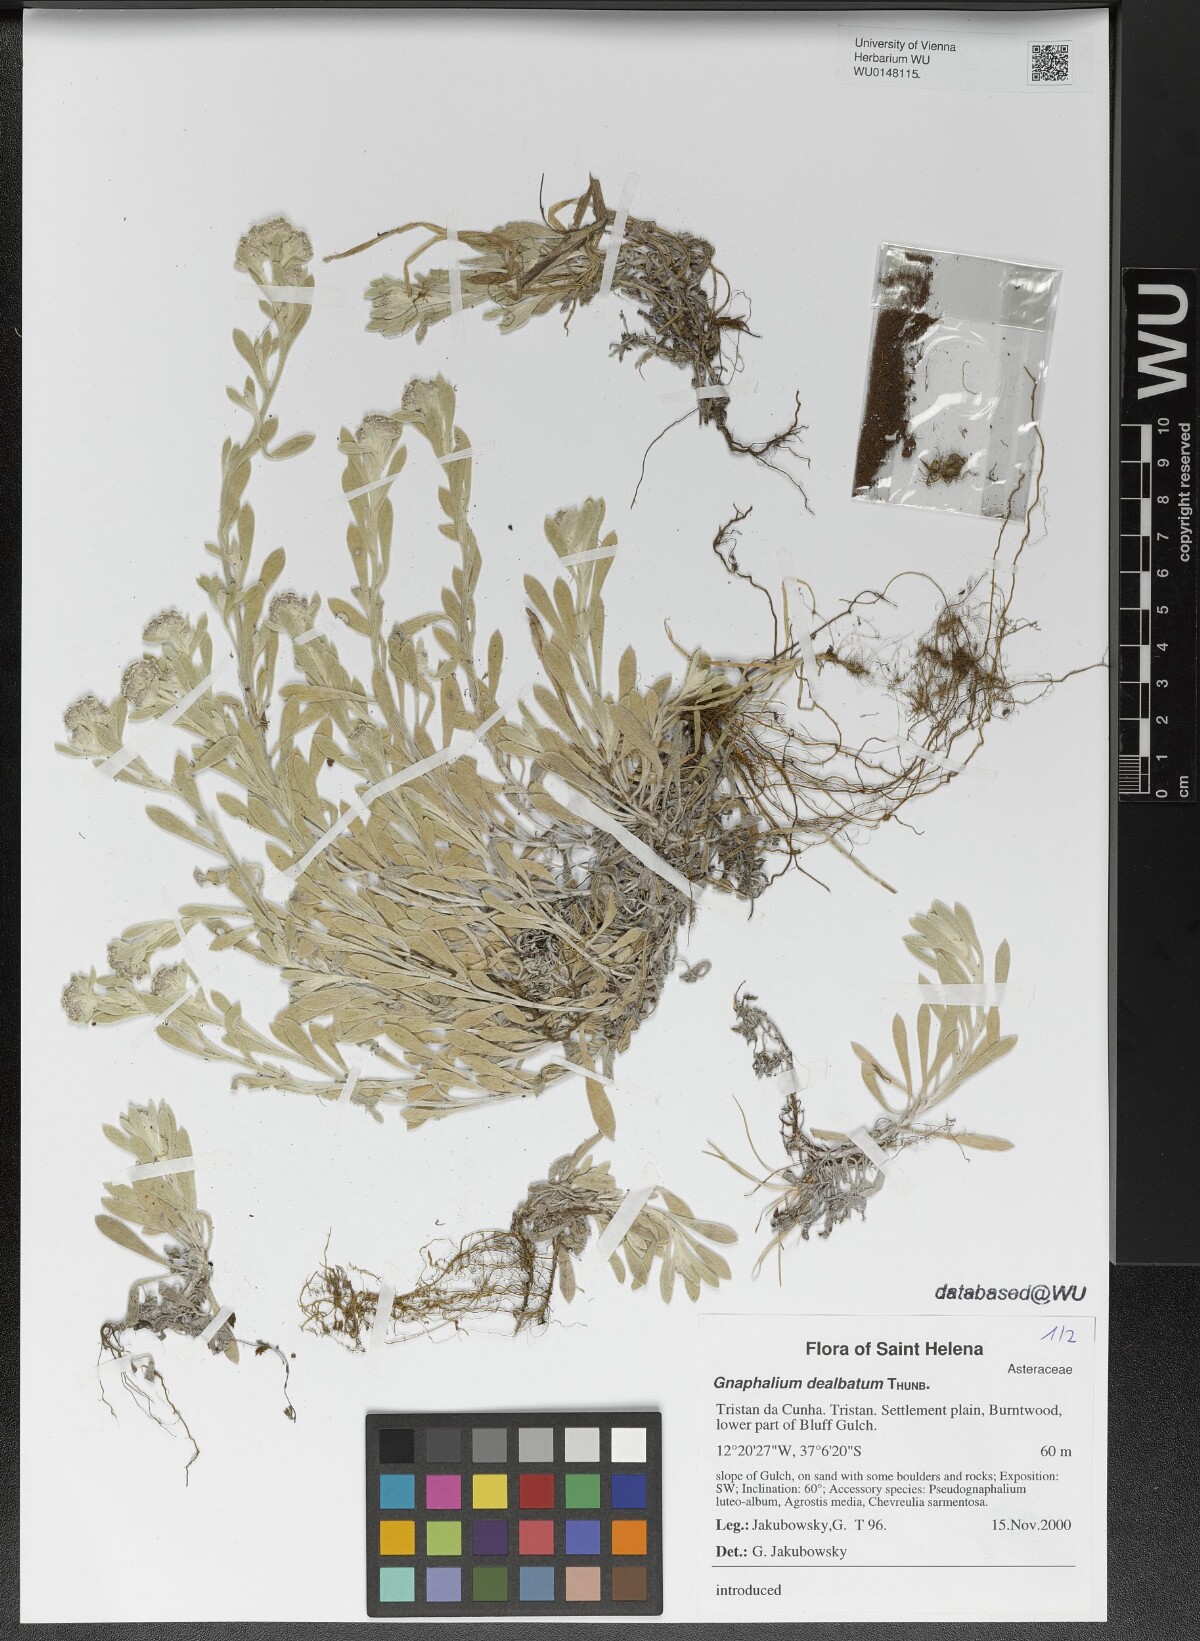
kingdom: Plantae
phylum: Tracheophyta
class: Magnoliopsida
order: Asterales
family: Asteraceae
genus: Vellereophyton
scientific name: Vellereophyton dealbatum
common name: White-cudweed
